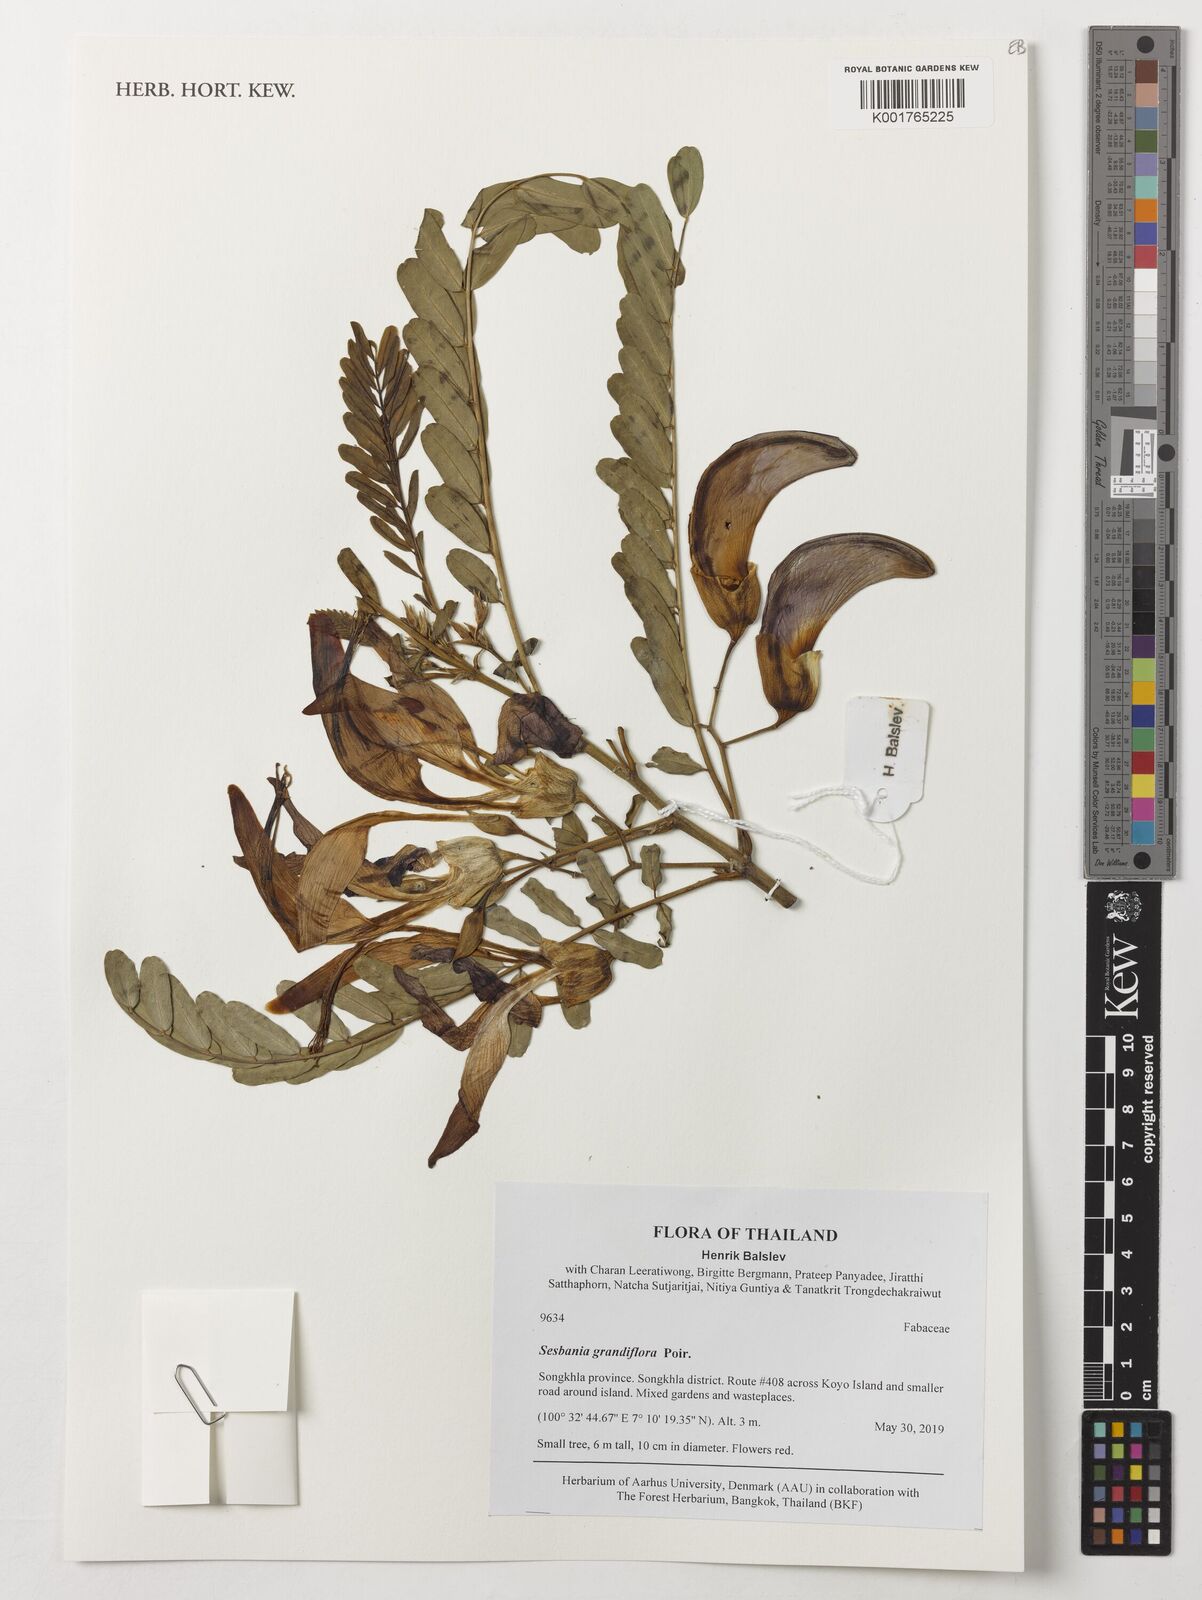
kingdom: Plantae
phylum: Tracheophyta
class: Magnoliopsida
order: Fabales
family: Fabaceae
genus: Sesbania
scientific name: Sesbania grandiflora
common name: Vegetable-hummingbird
